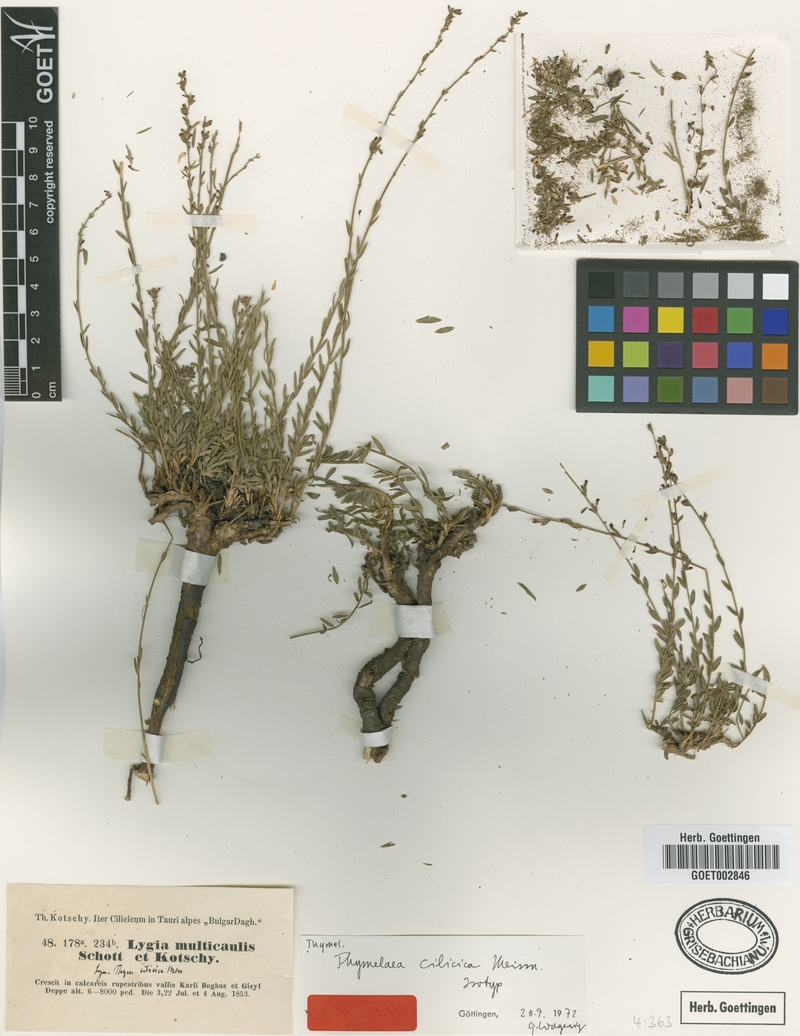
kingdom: Plantae
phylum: Tracheophyta
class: Magnoliopsida
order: Malvales
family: Thymelaeaceae
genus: Thymelaea
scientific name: Thymelaea cilicica
